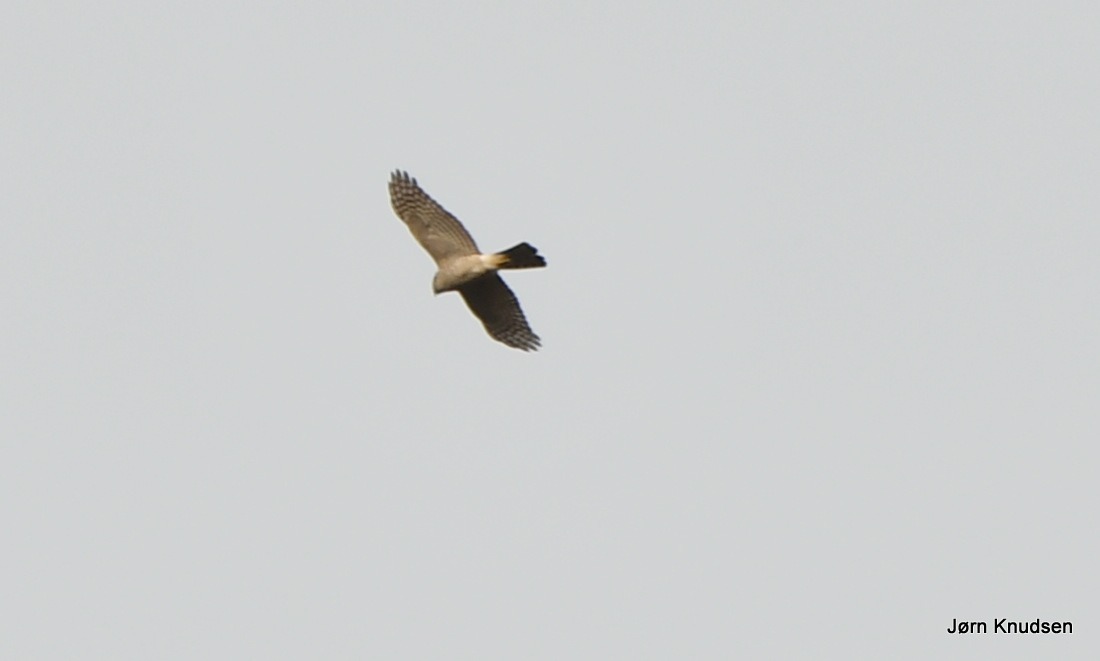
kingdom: Animalia
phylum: Chordata
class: Aves
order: Accipitriformes
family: Accipitridae
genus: Accipiter
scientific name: Accipiter nisus
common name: Spurvehøg
